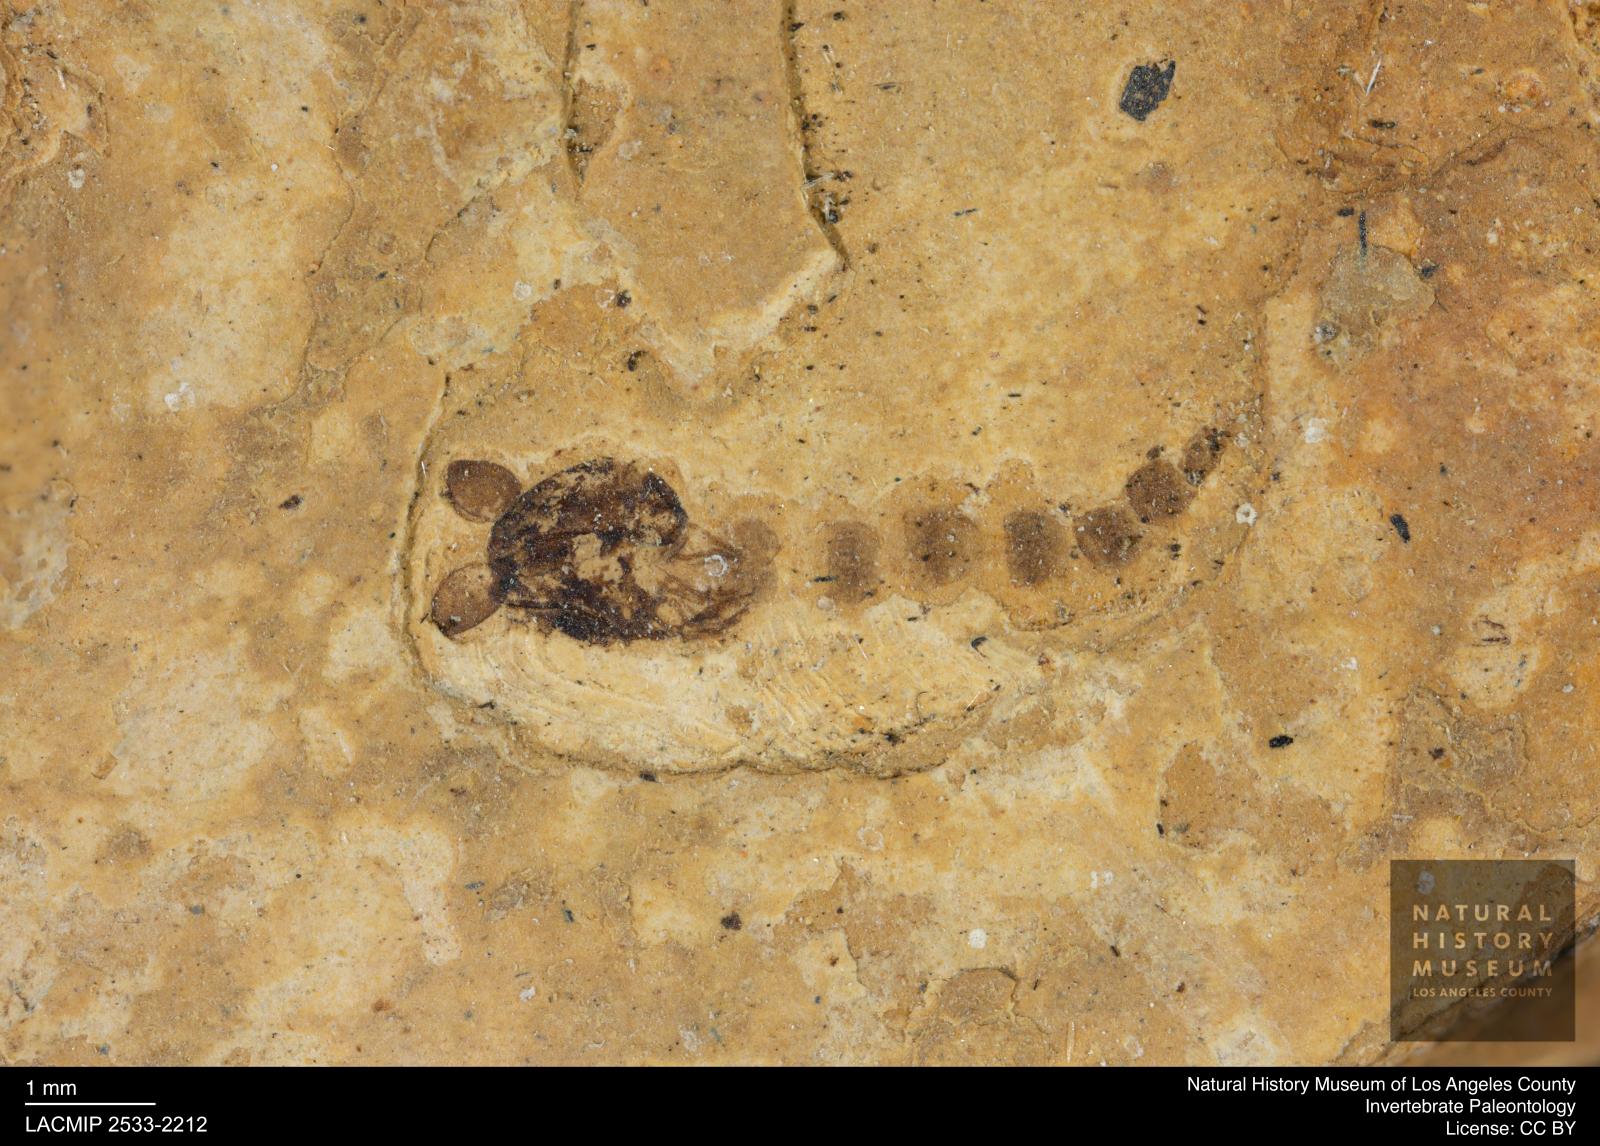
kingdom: Animalia
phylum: Arthropoda
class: Insecta
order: Diptera
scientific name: Diptera
